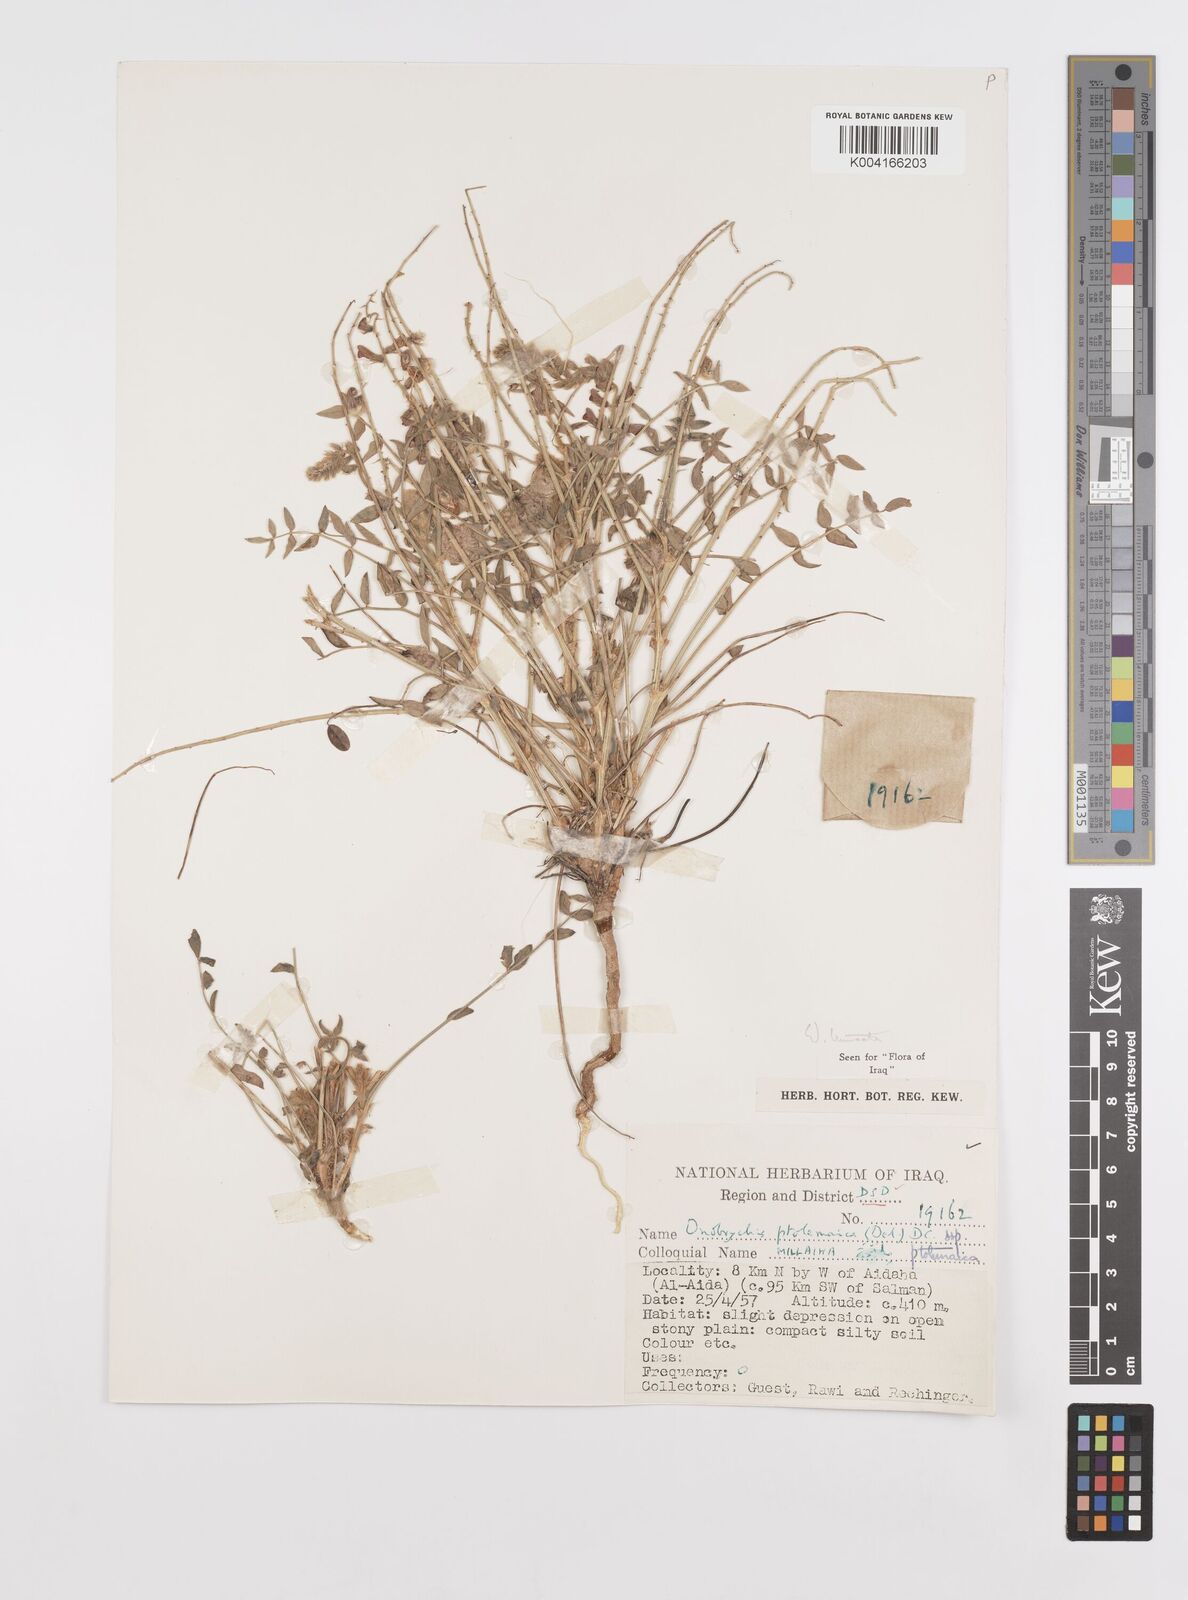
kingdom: Plantae
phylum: Tracheophyta
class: Magnoliopsida
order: Fabales
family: Fabaceae
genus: Onobrychis
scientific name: Onobrychis ptolemaica
